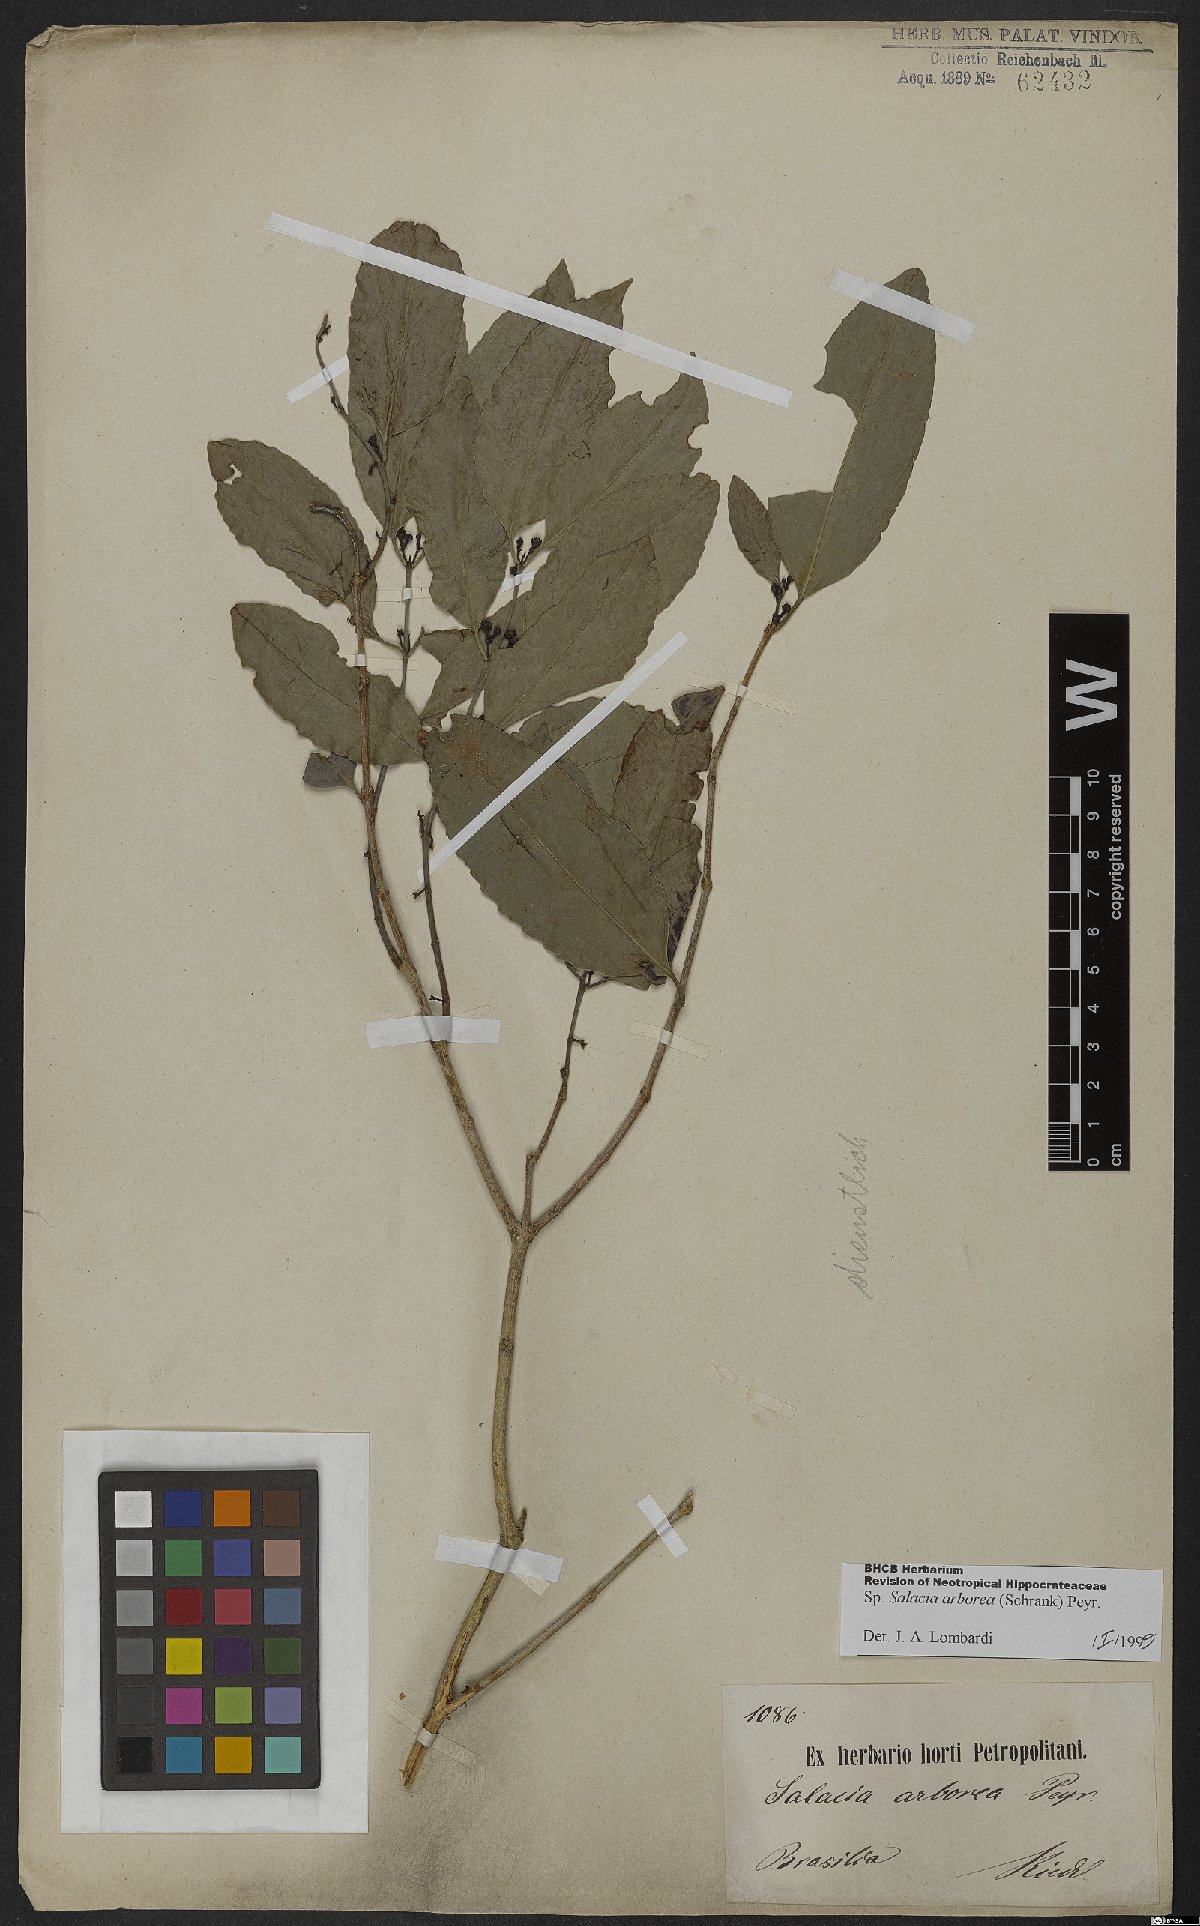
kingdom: Plantae
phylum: Tracheophyta
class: Magnoliopsida
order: Celastrales
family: Celastraceae
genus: Salacia
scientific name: Salacia arborea
